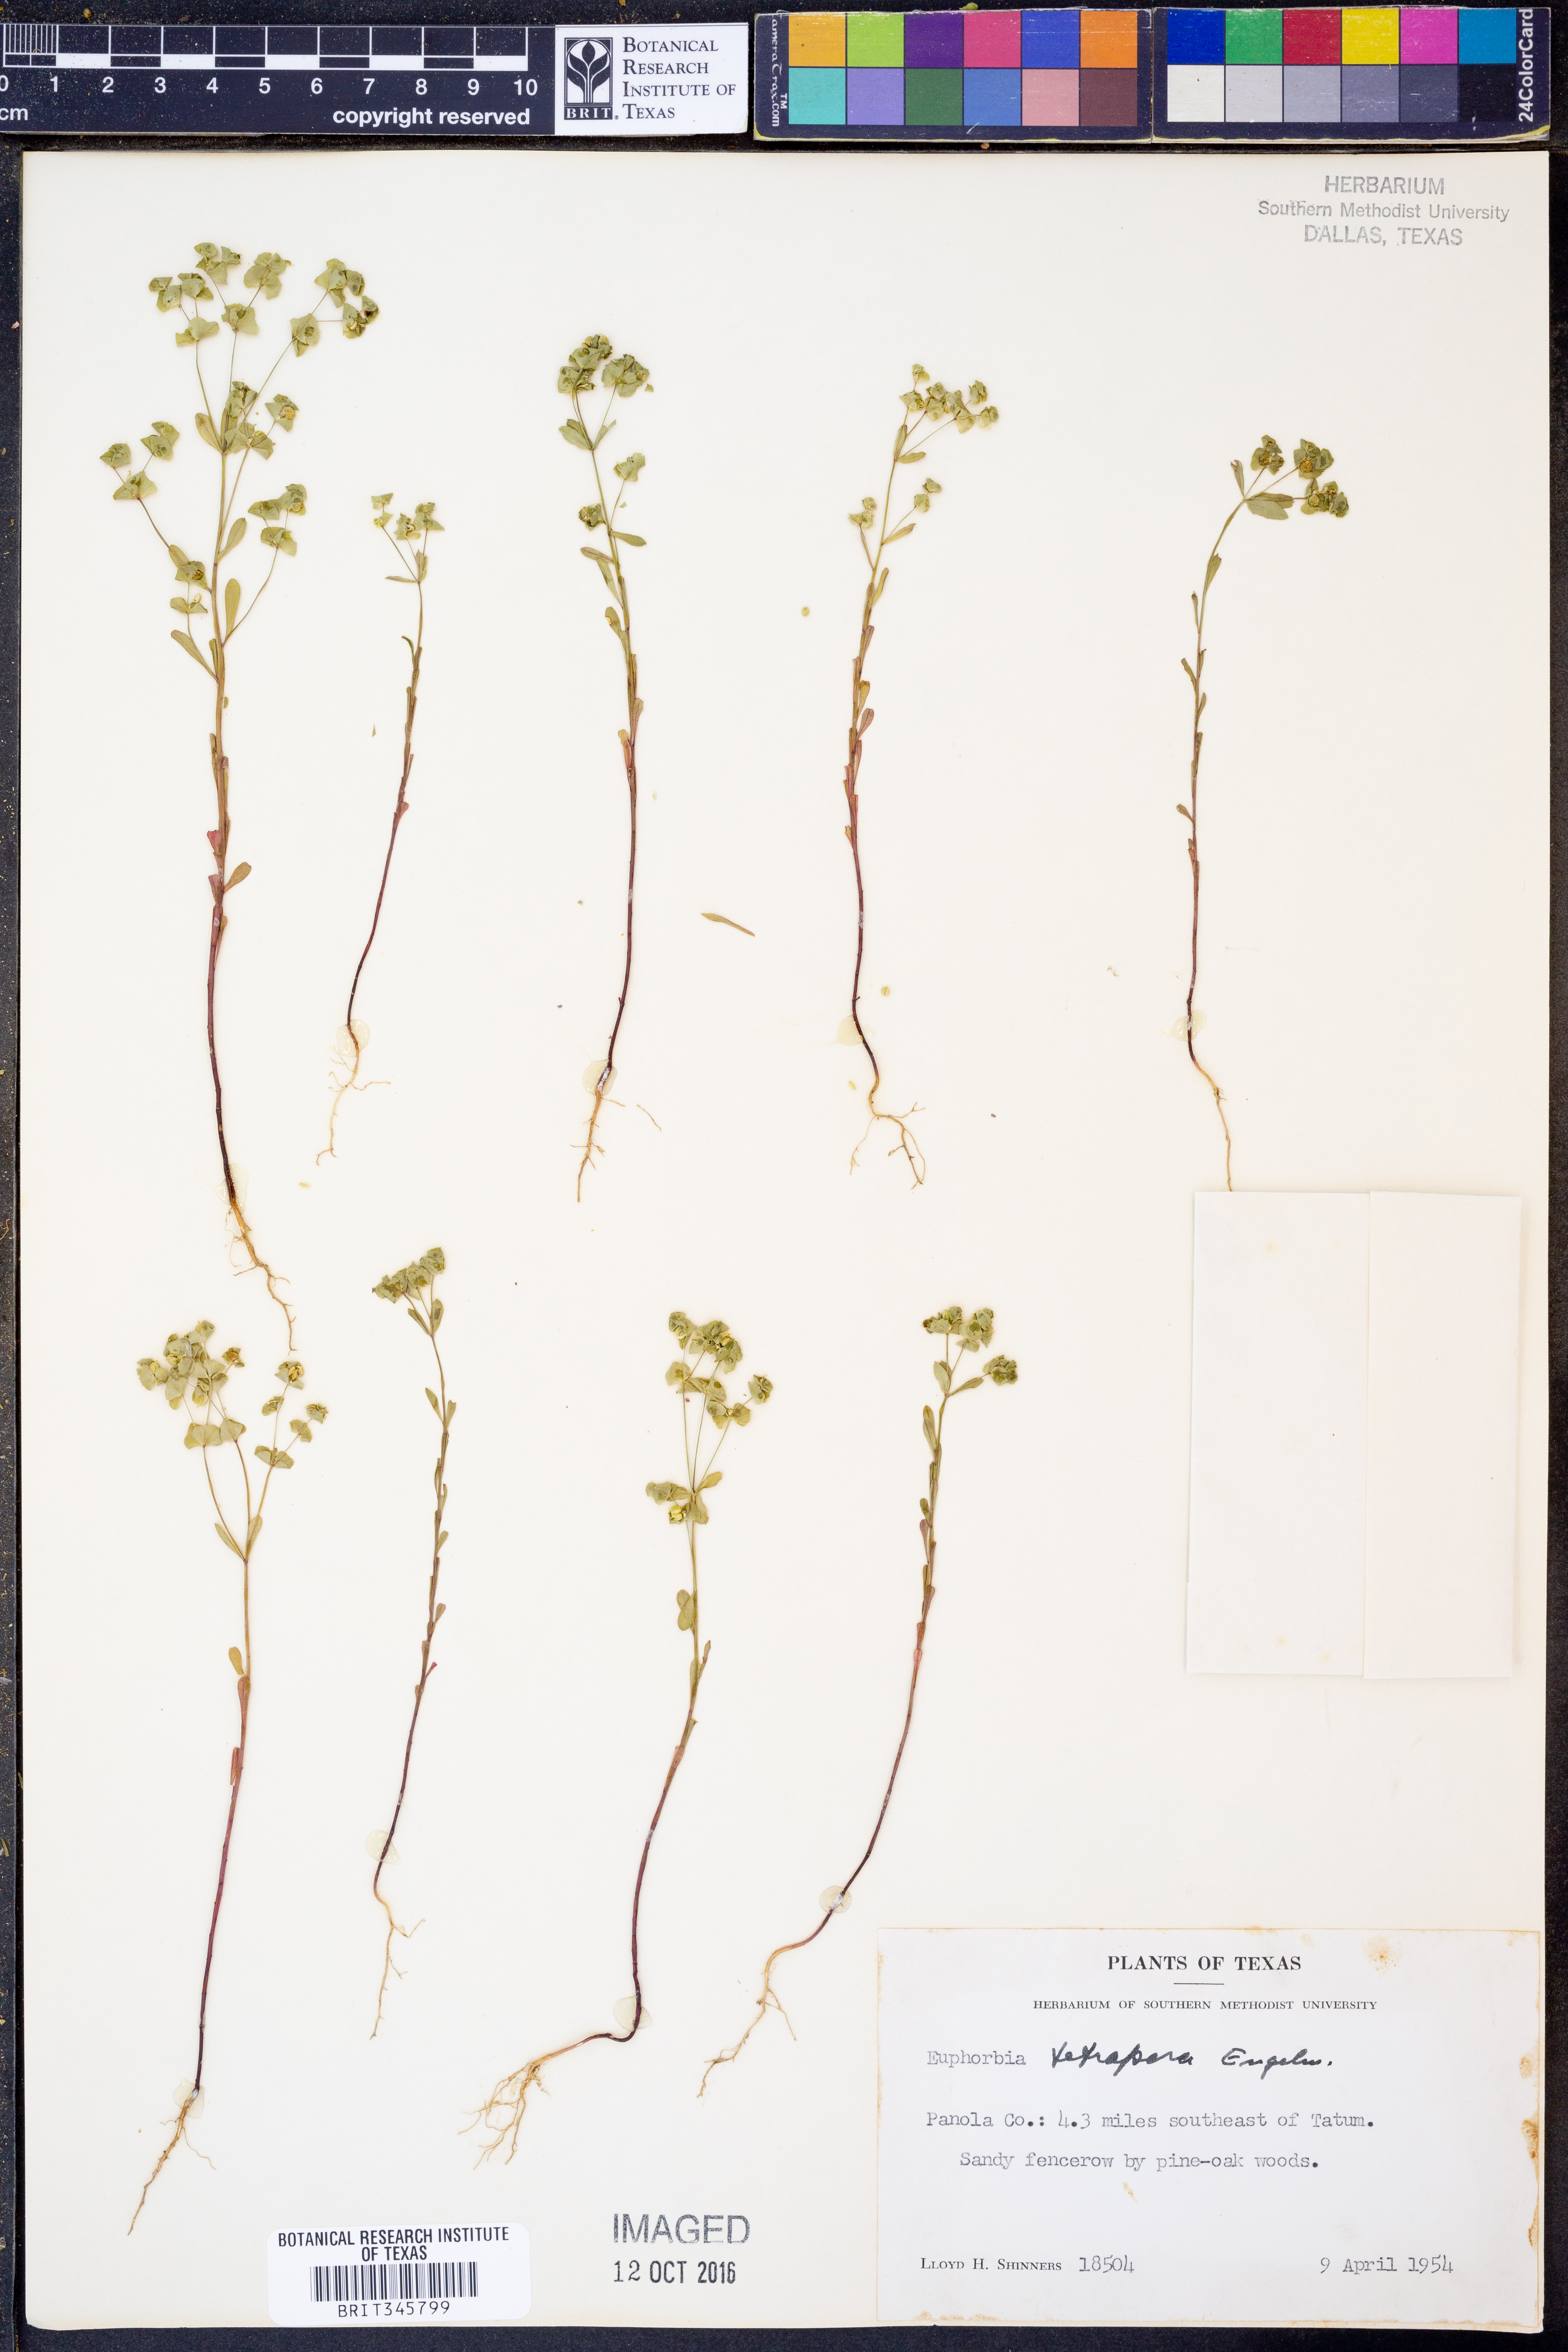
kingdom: Plantae
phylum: Tracheophyta
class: Magnoliopsida
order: Malpighiales
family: Euphorbiaceae
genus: Euphorbia
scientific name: Euphorbia tetrapora
